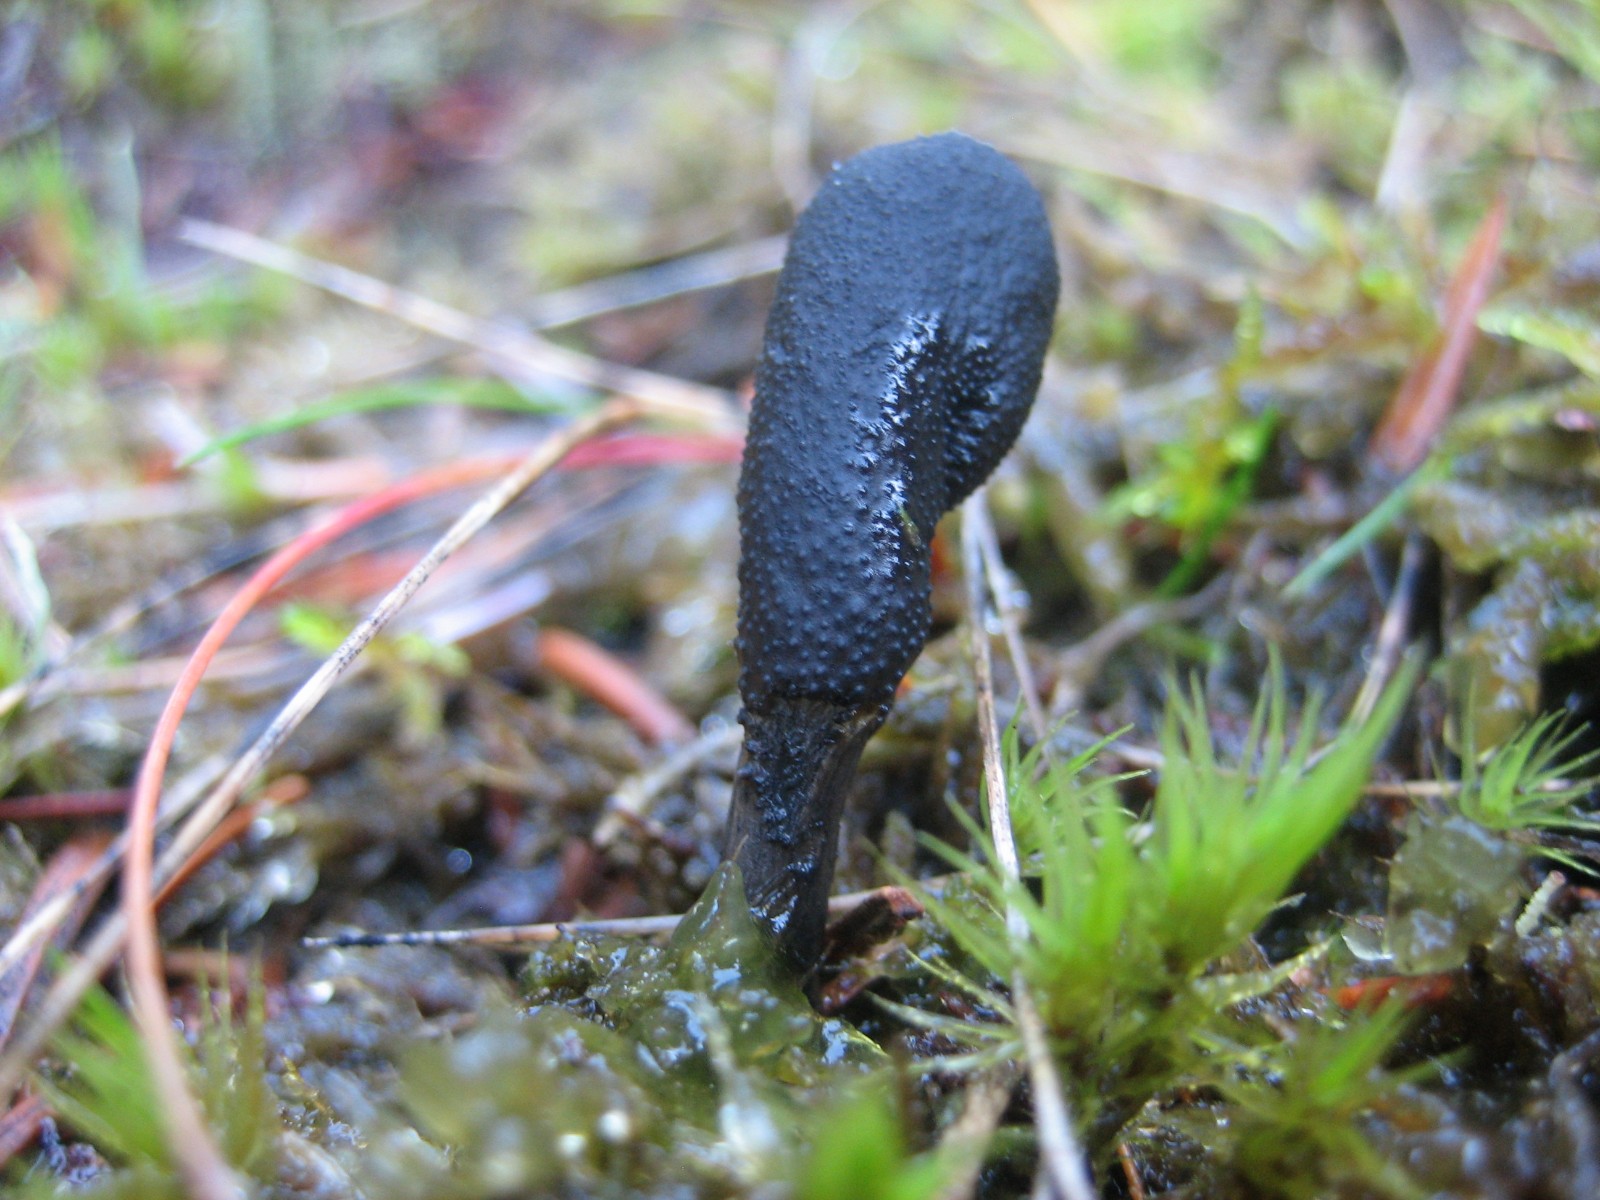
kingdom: Fungi
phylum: Ascomycota
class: Sordariomycetes
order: Hypocreales
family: Ophiocordycipitaceae
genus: Tolypocladium
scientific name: Tolypocladium ophioglossoides
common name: slank snyltekølle
